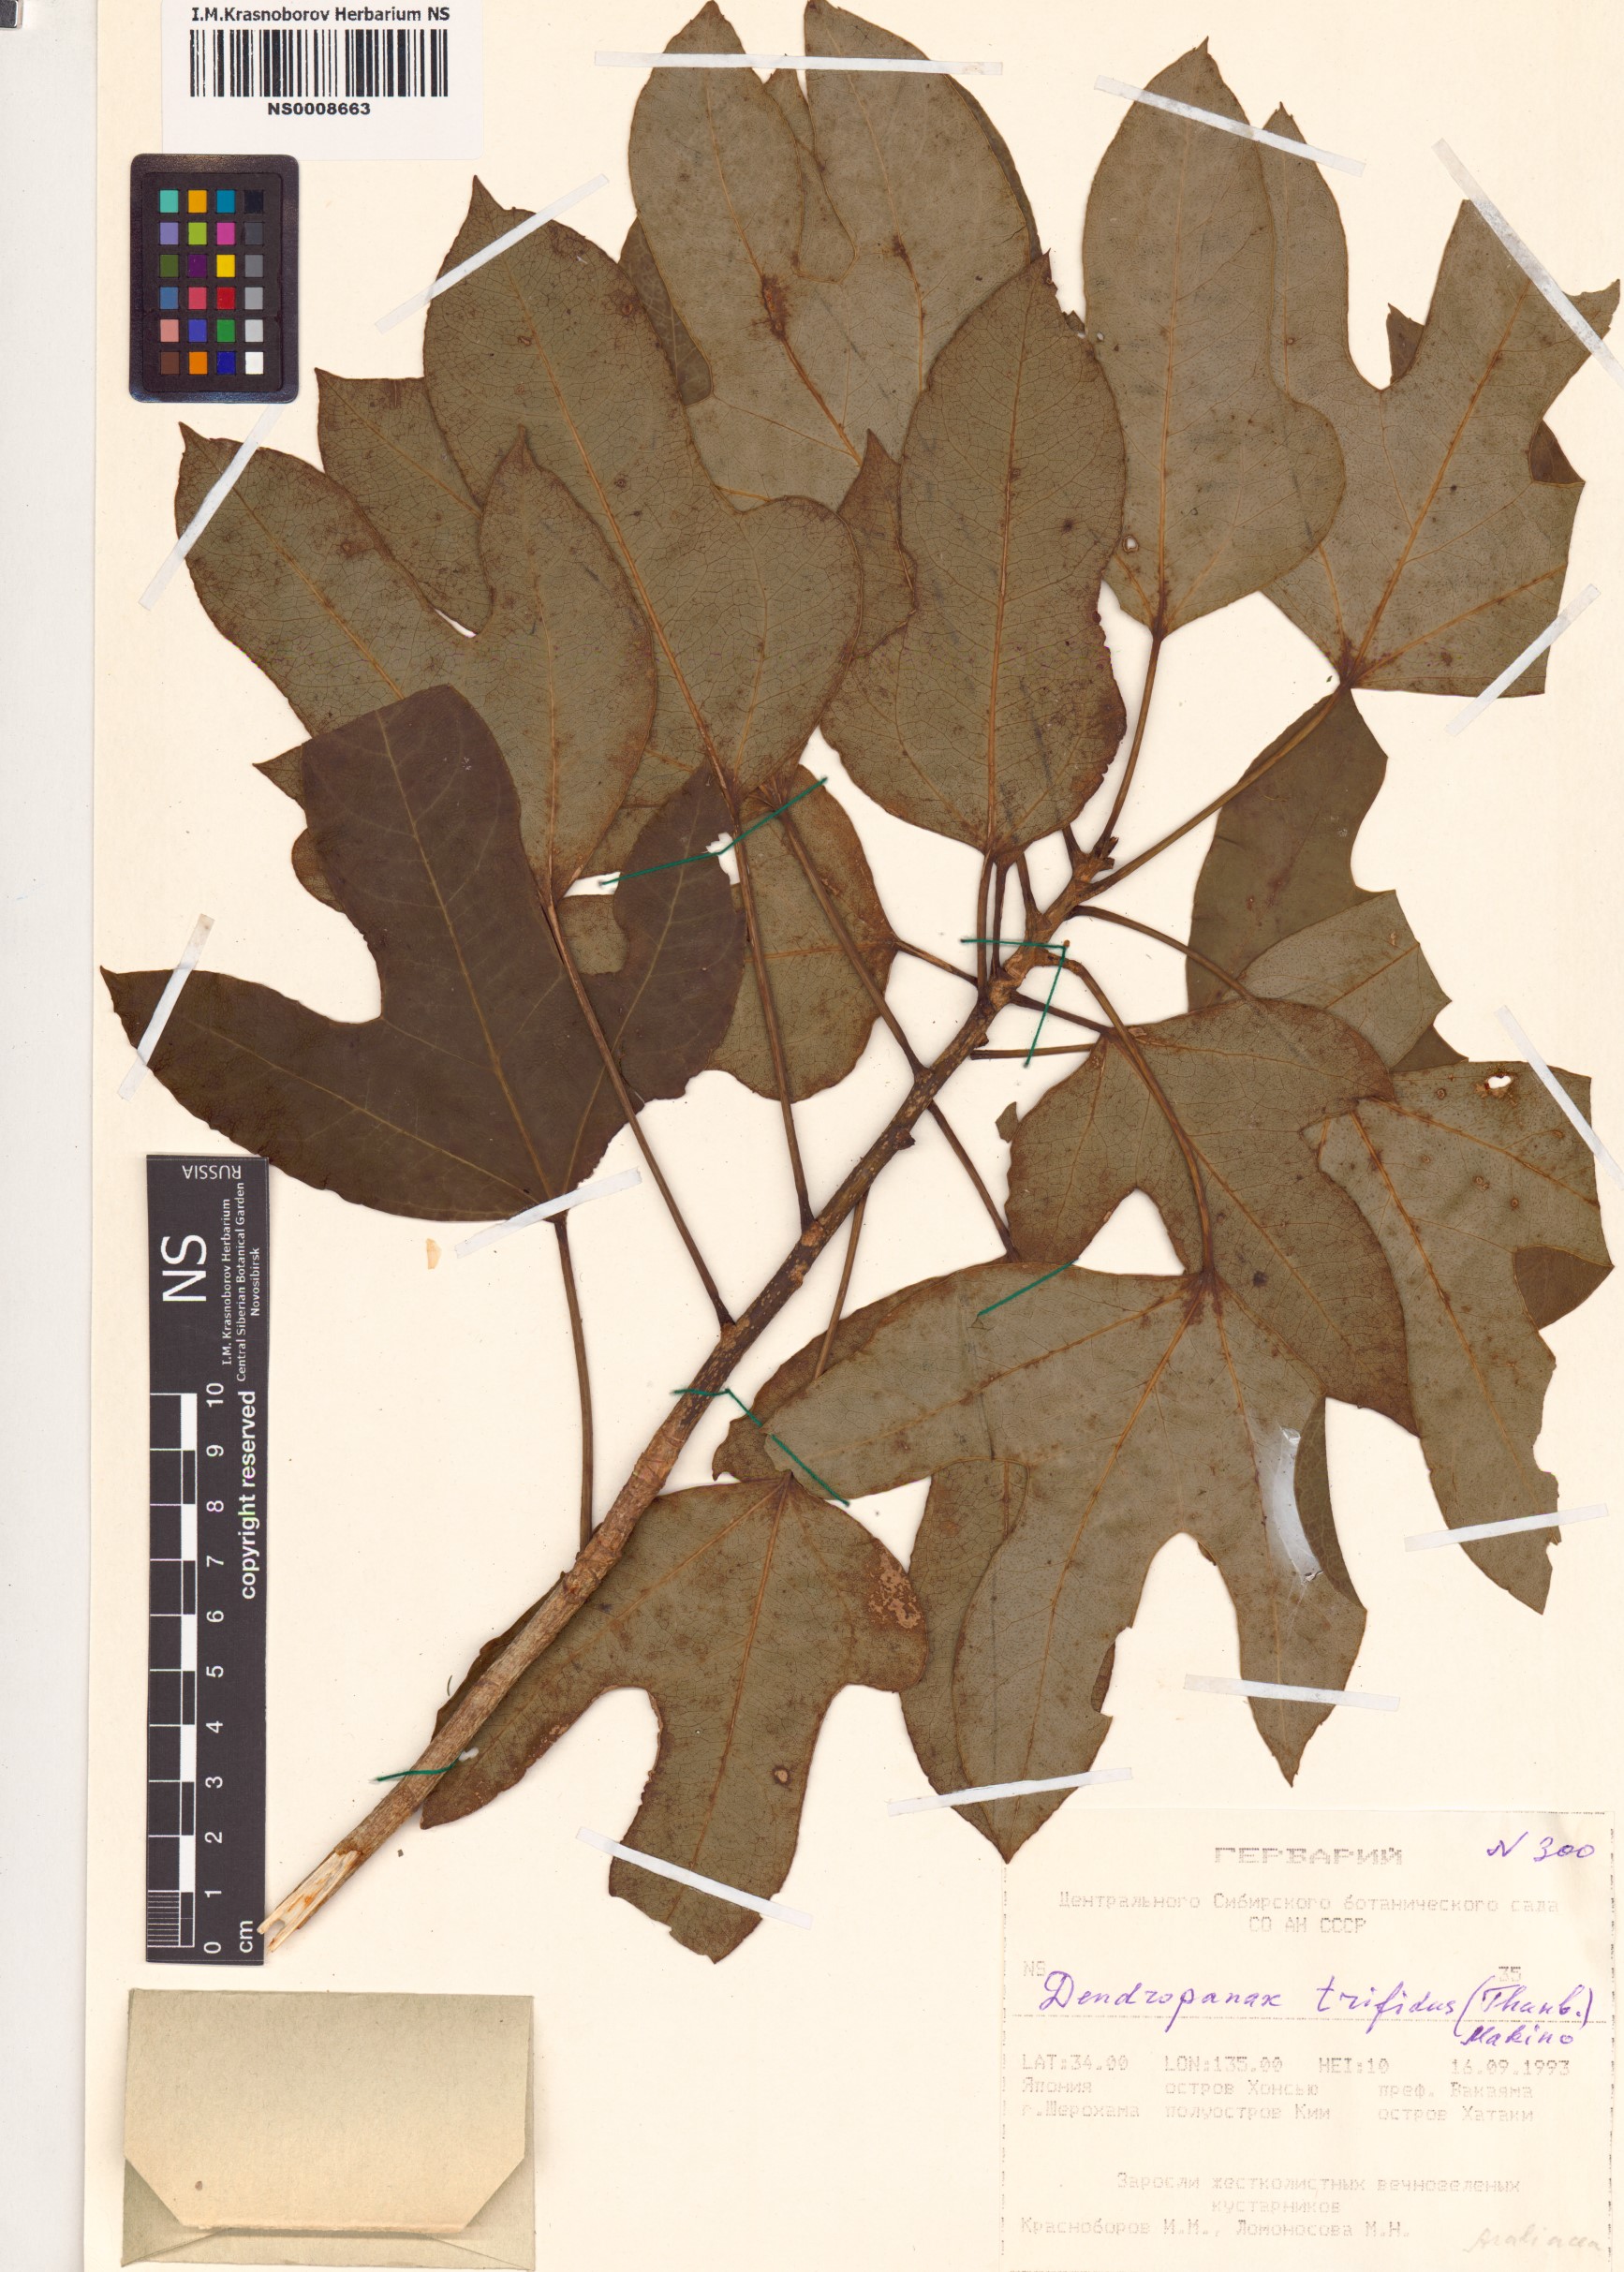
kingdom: Plantae
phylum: Tracheophyta
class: Magnoliopsida
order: Apiales
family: Araliaceae
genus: Dendropanax
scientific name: Dendropanax trifidus
